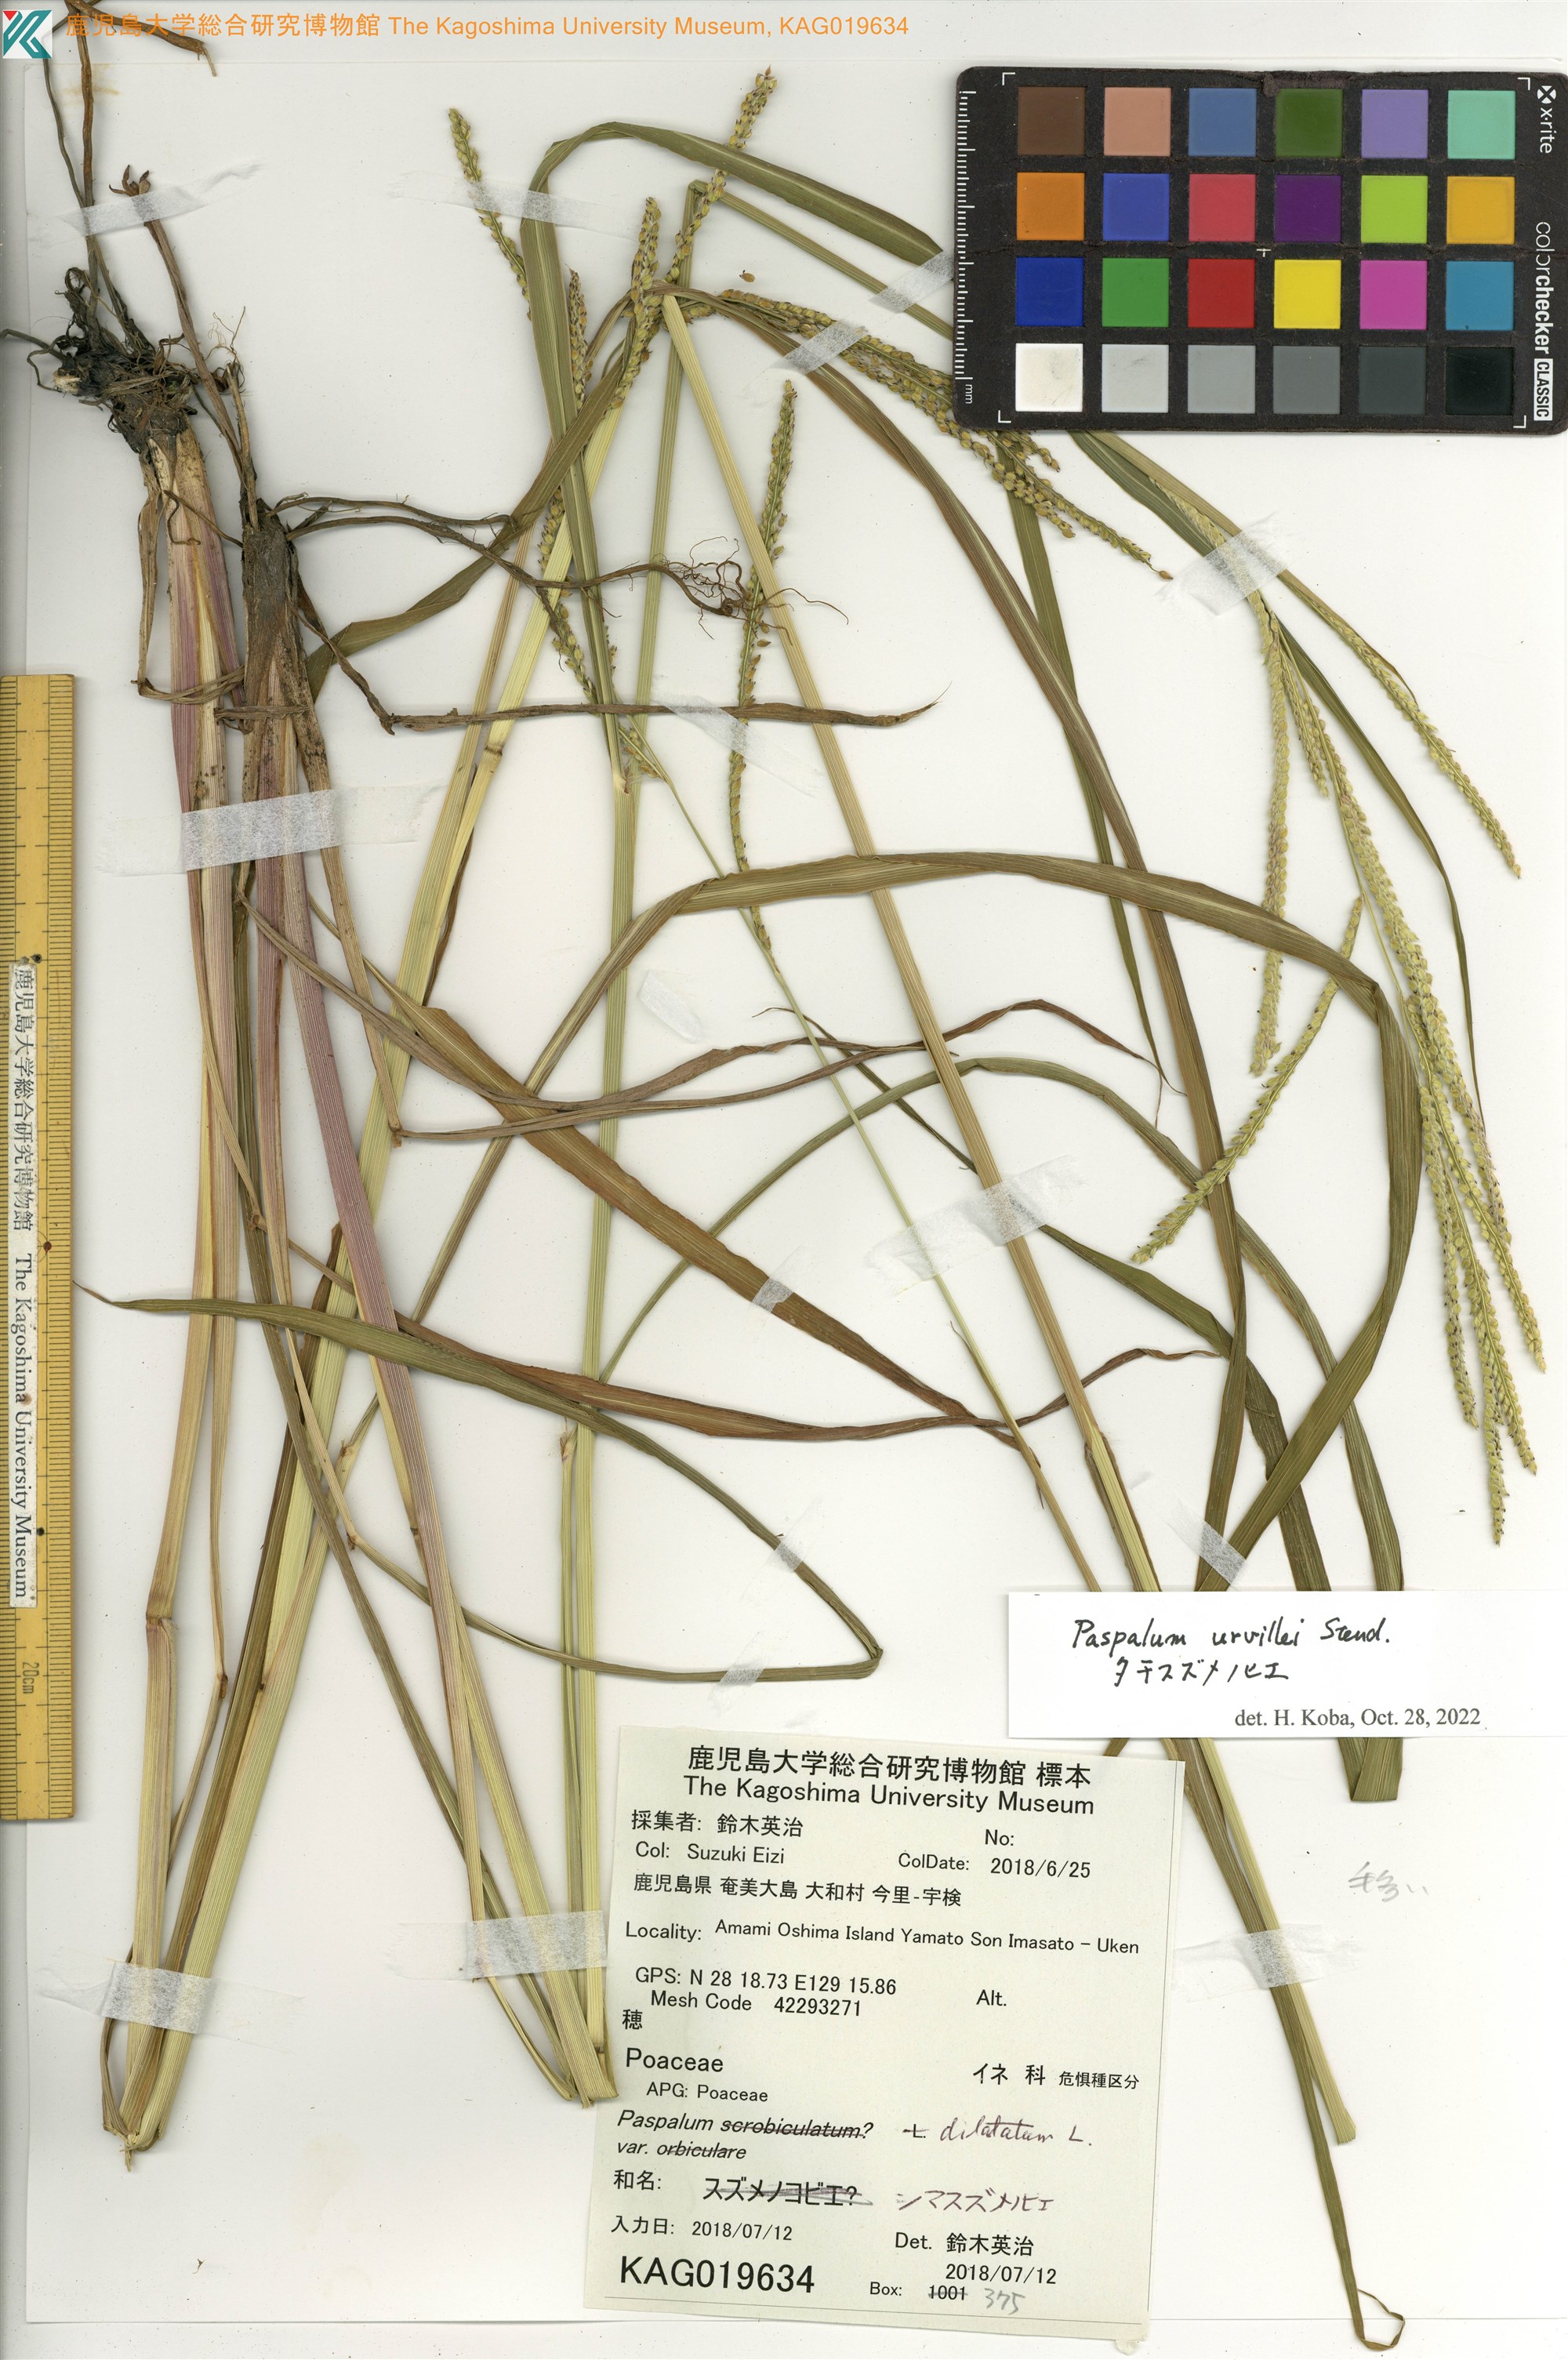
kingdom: Plantae
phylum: Tracheophyta
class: Liliopsida
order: Poales
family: Poaceae
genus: Paspalum
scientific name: Paspalum dilatatum
